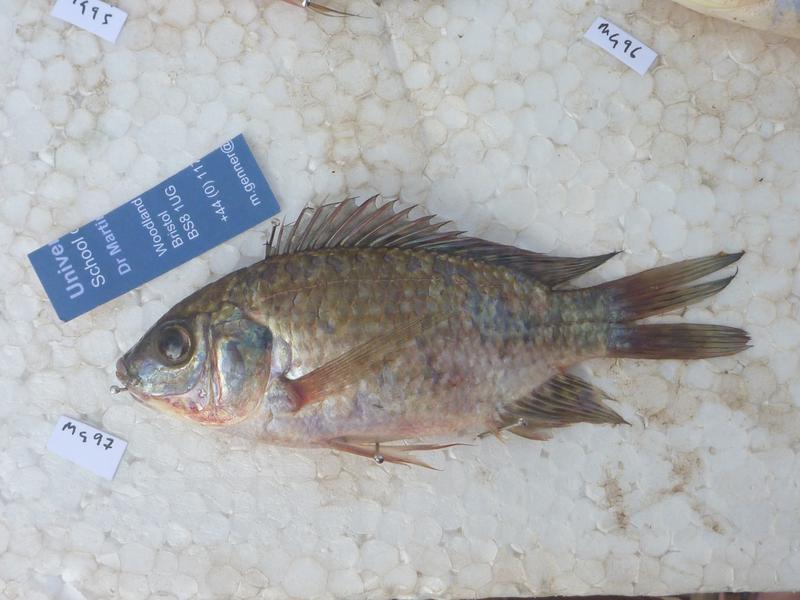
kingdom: Animalia
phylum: Chordata
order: Perciformes
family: Cichlidae
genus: Oreochromis
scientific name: Oreochromis leucostictus
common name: Blue spotted tilapia
